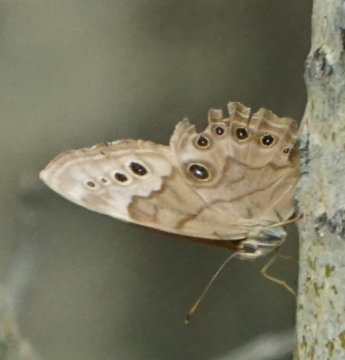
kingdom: Animalia
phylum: Arthropoda
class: Insecta
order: Lepidoptera
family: Nymphalidae
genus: Cercyonis
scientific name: Cercyonis pegala
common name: Common Wood-Nymph
